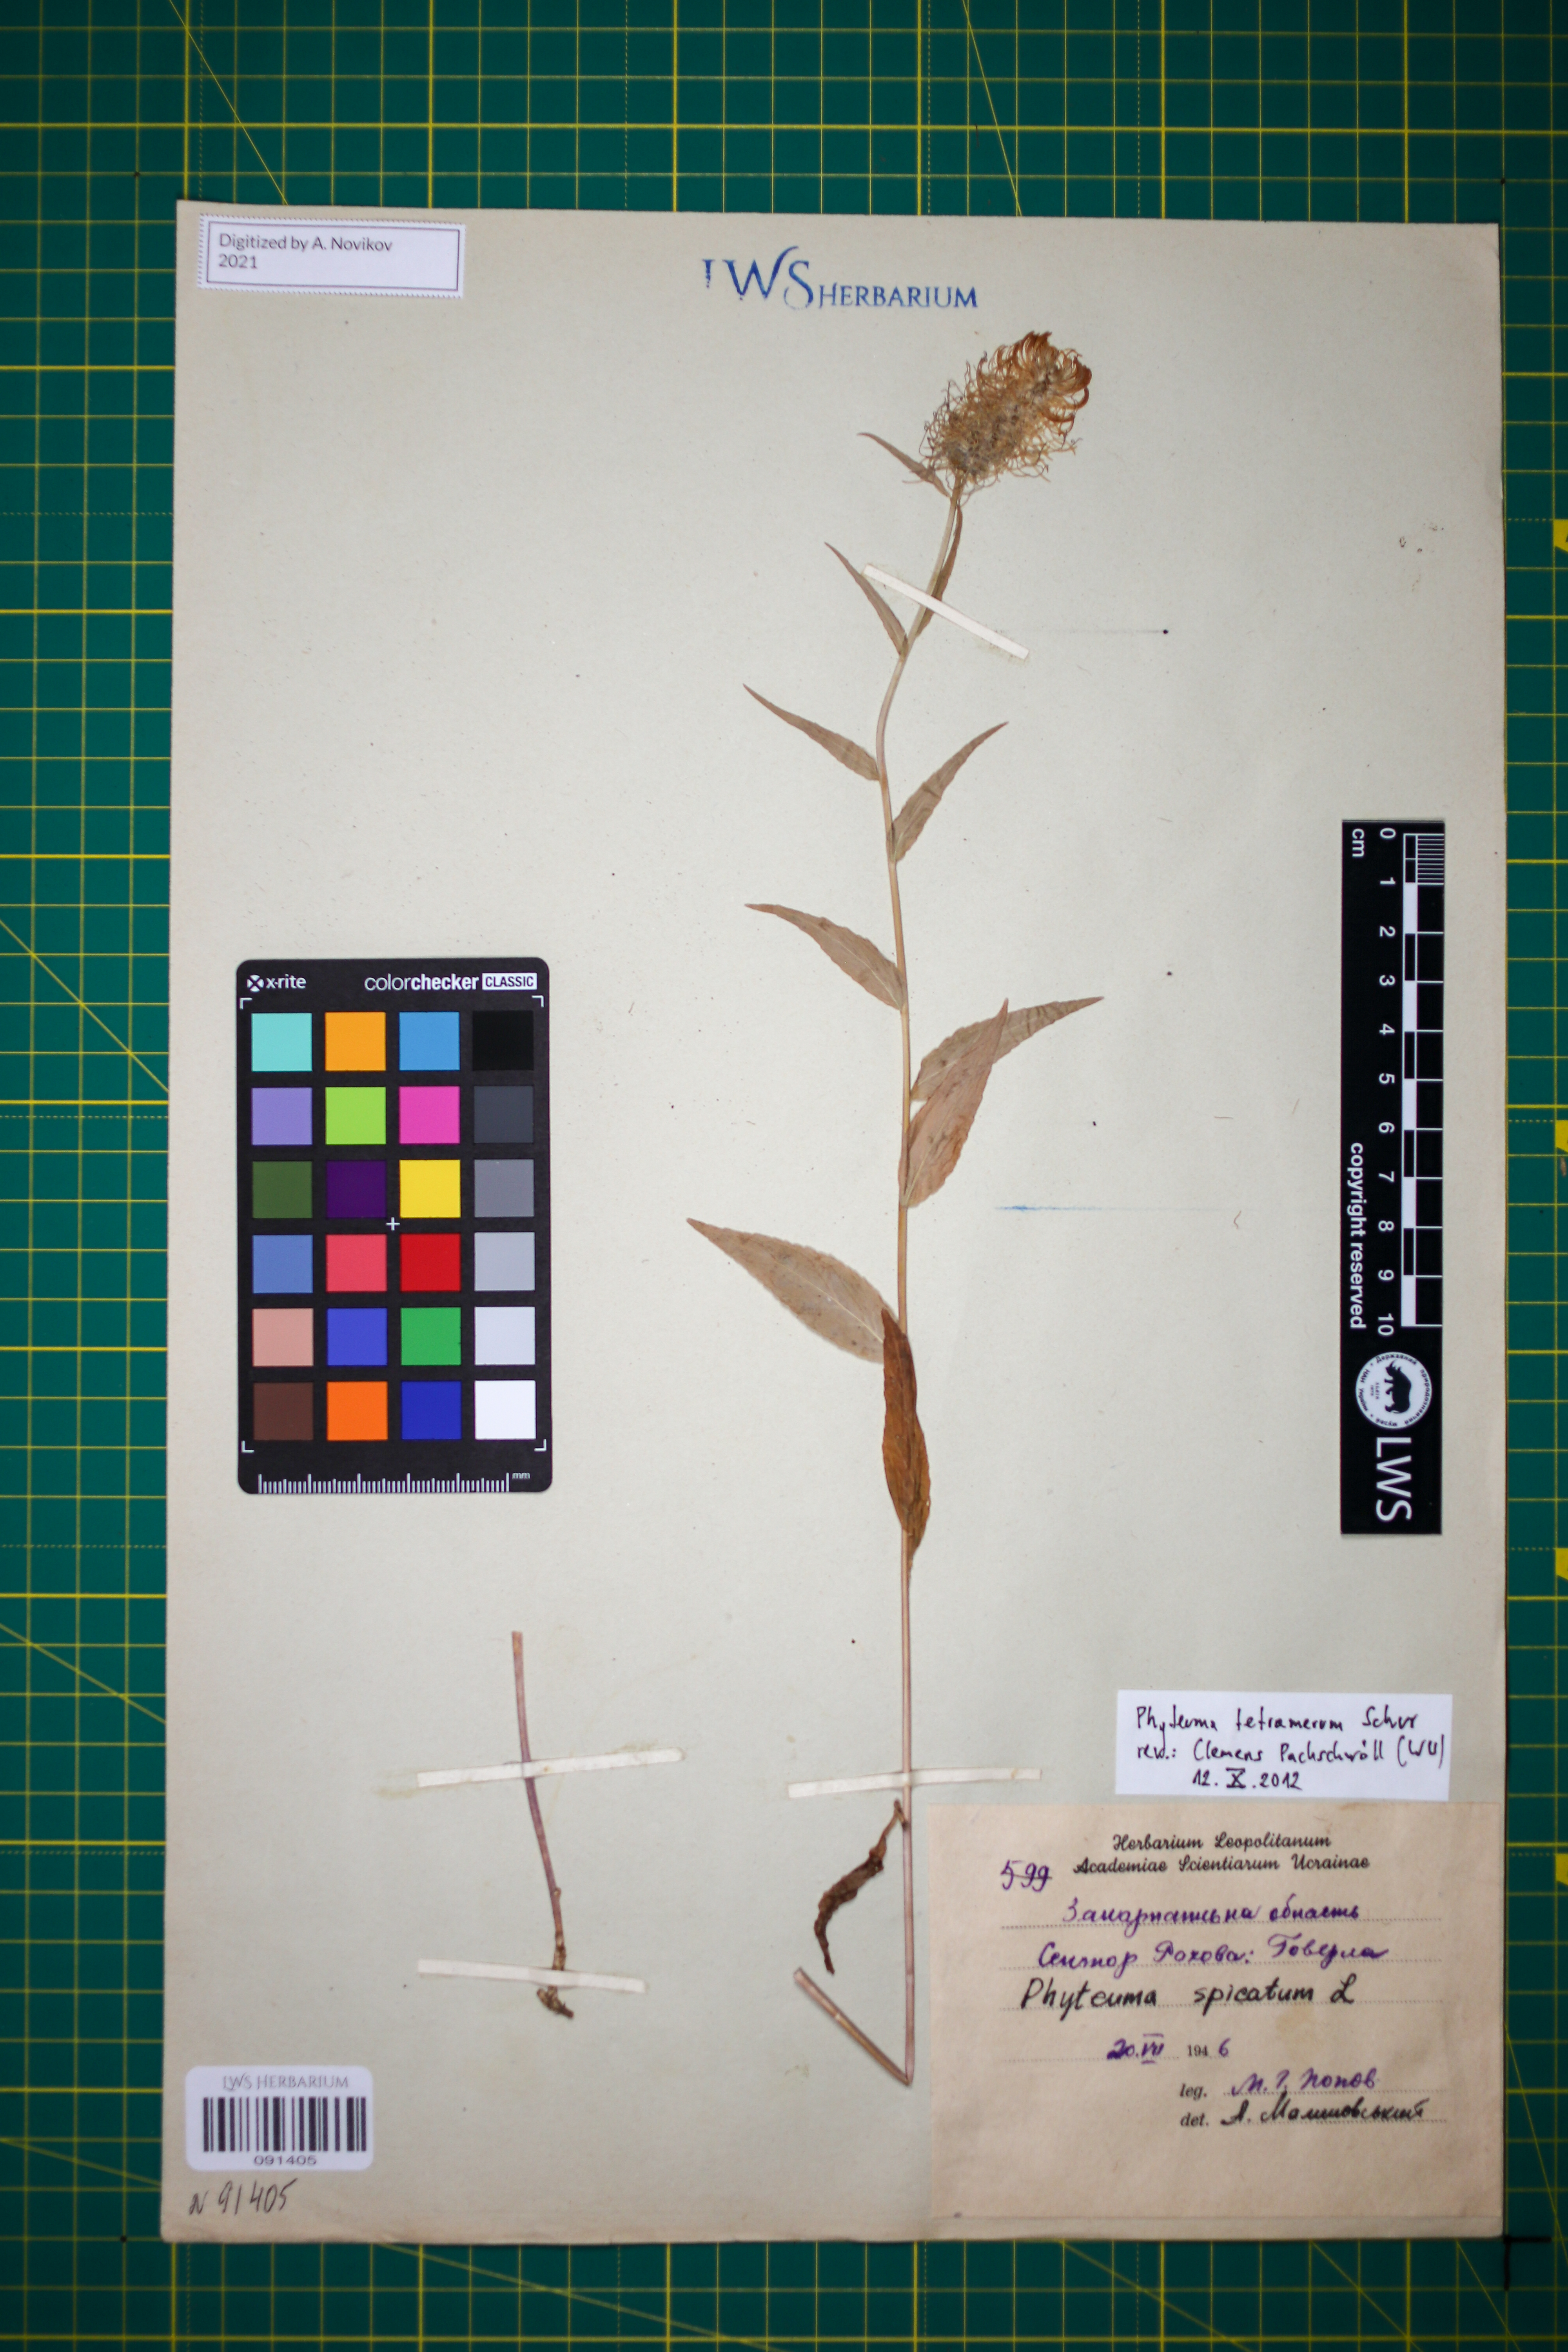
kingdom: Plantae
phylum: Tracheophyta
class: Magnoliopsida
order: Asterales
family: Campanulaceae
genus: Phyteuma
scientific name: Phyteuma tetramerum
